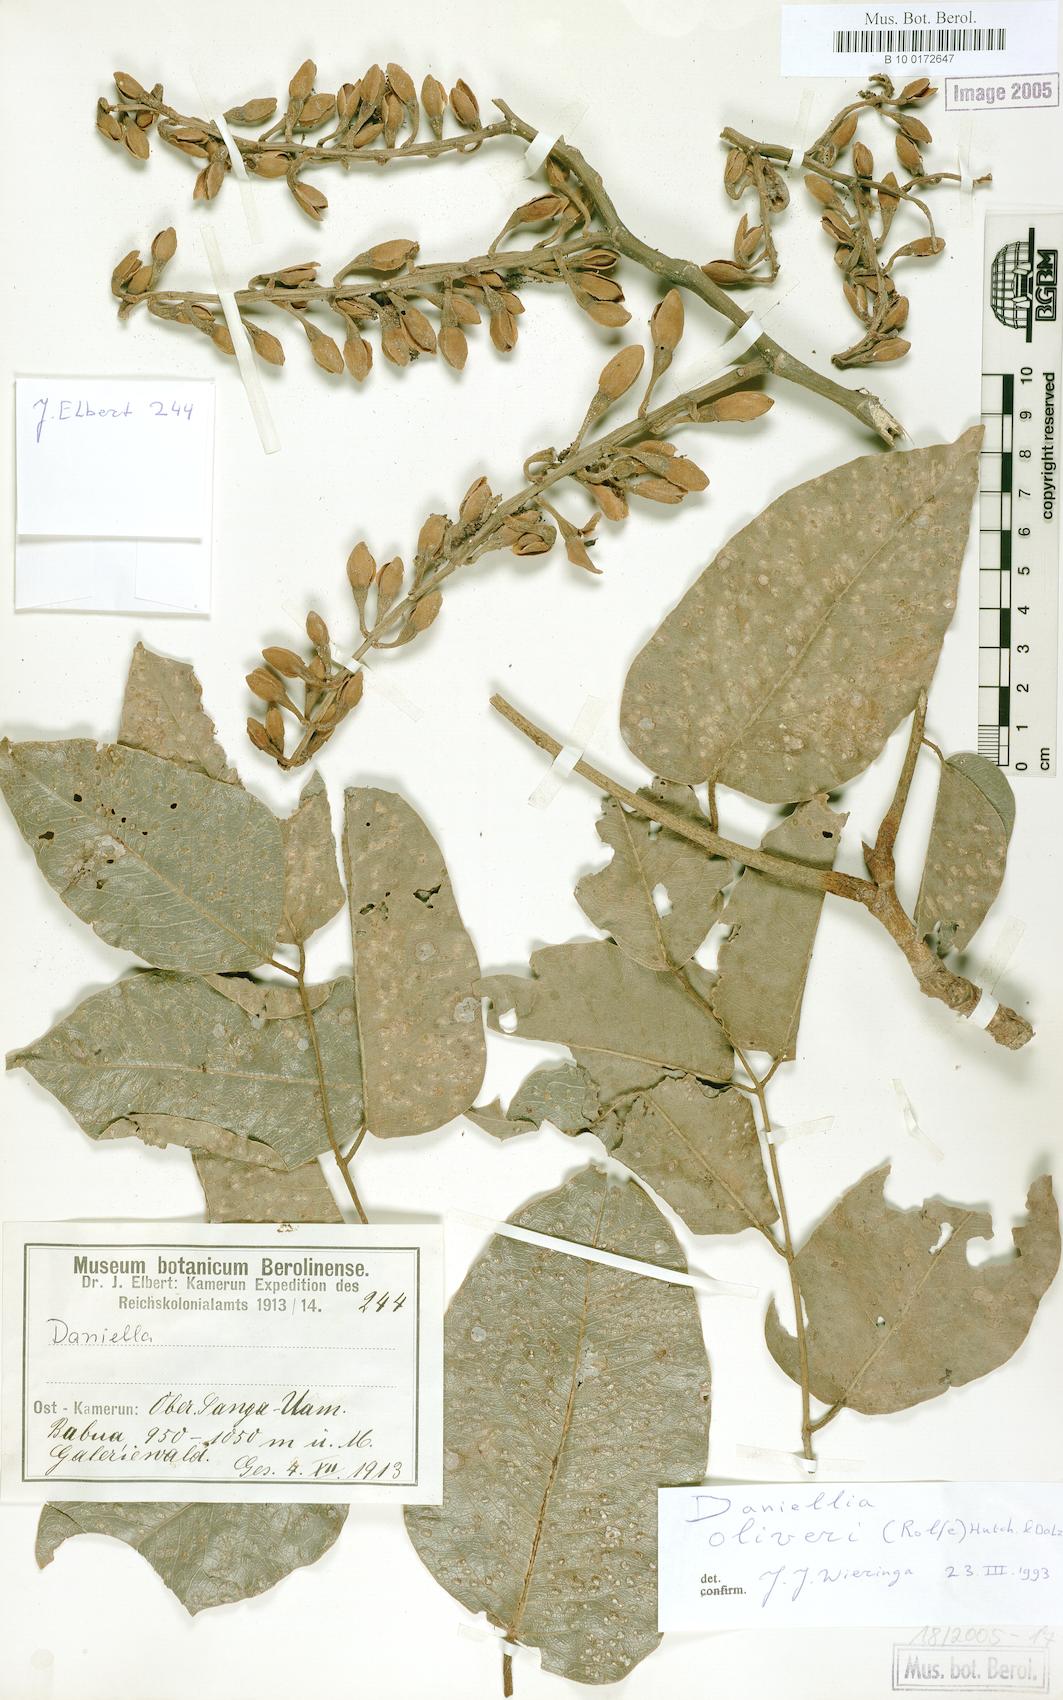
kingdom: Plantae
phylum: Tracheophyta
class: Magnoliopsida
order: Fabales
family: Fabaceae
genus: Daniellia
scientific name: Daniellia oliveri
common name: African copaiba balsamtree
